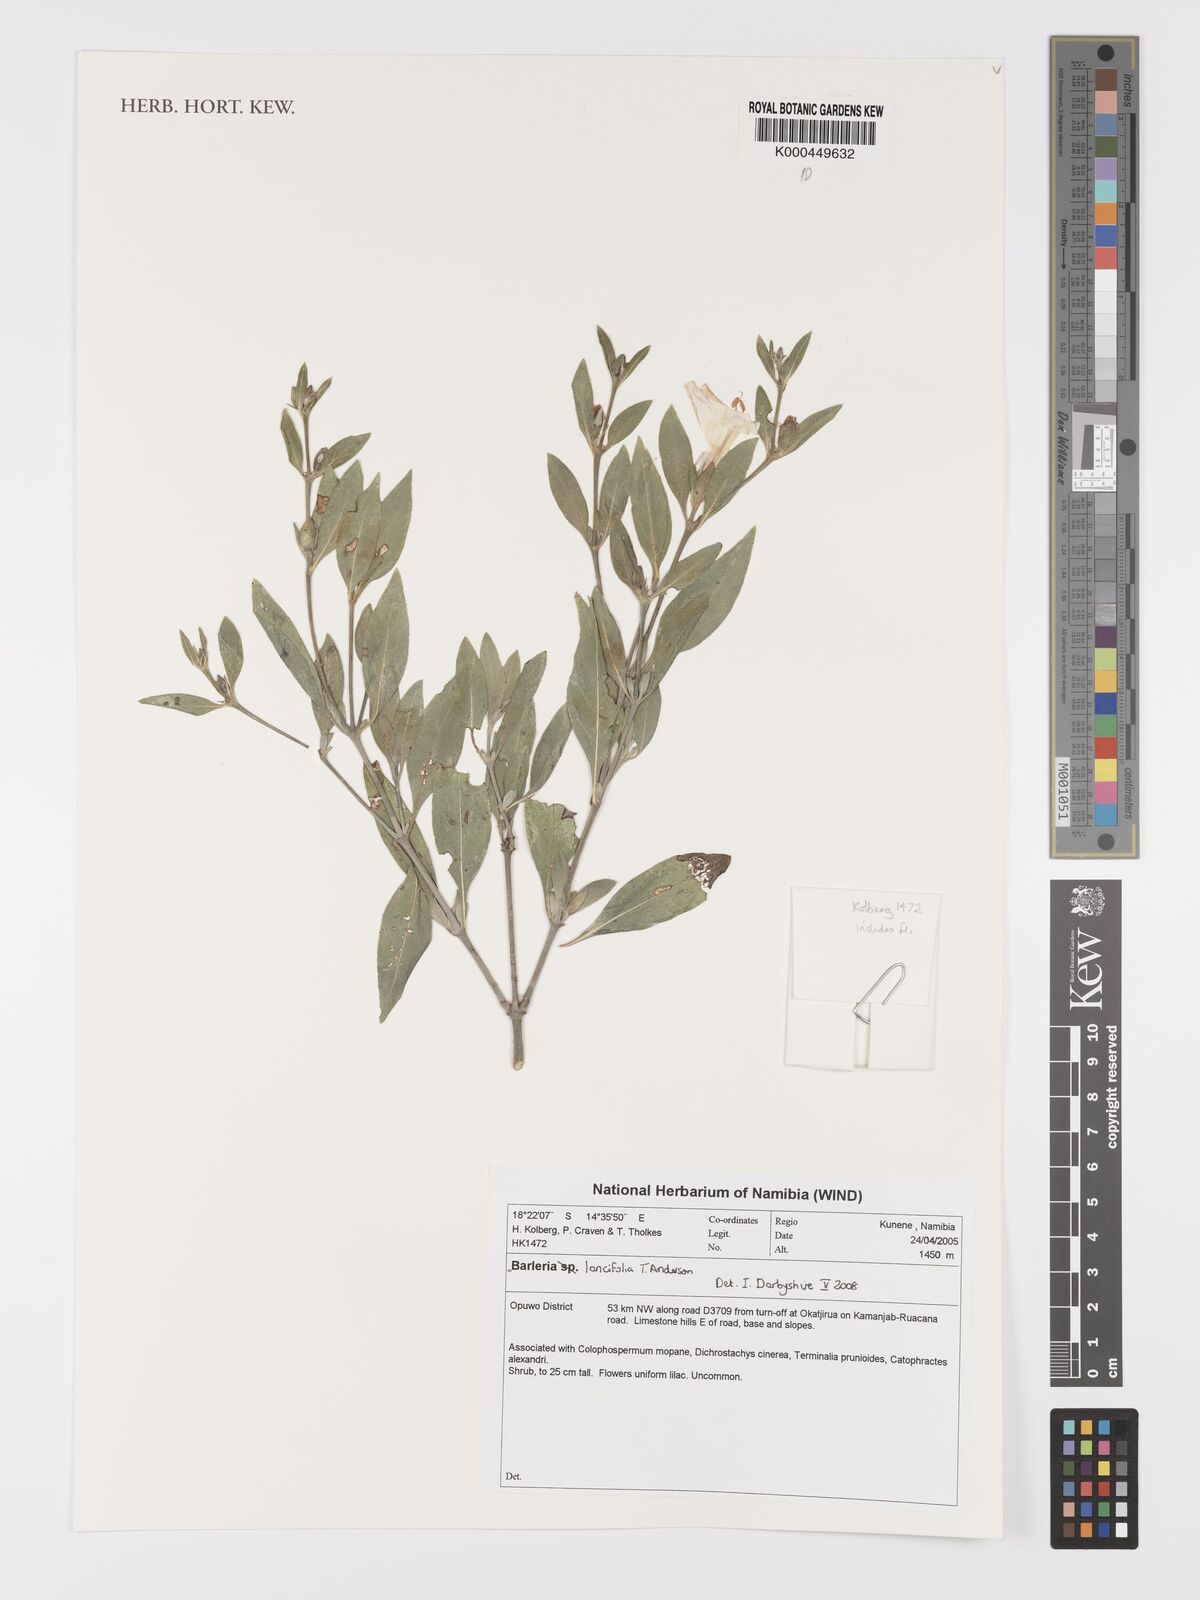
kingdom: Plantae
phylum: Tracheophyta
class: Magnoliopsida
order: Lamiales
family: Acanthaceae
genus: Barleria
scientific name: Barleria lancifolia
